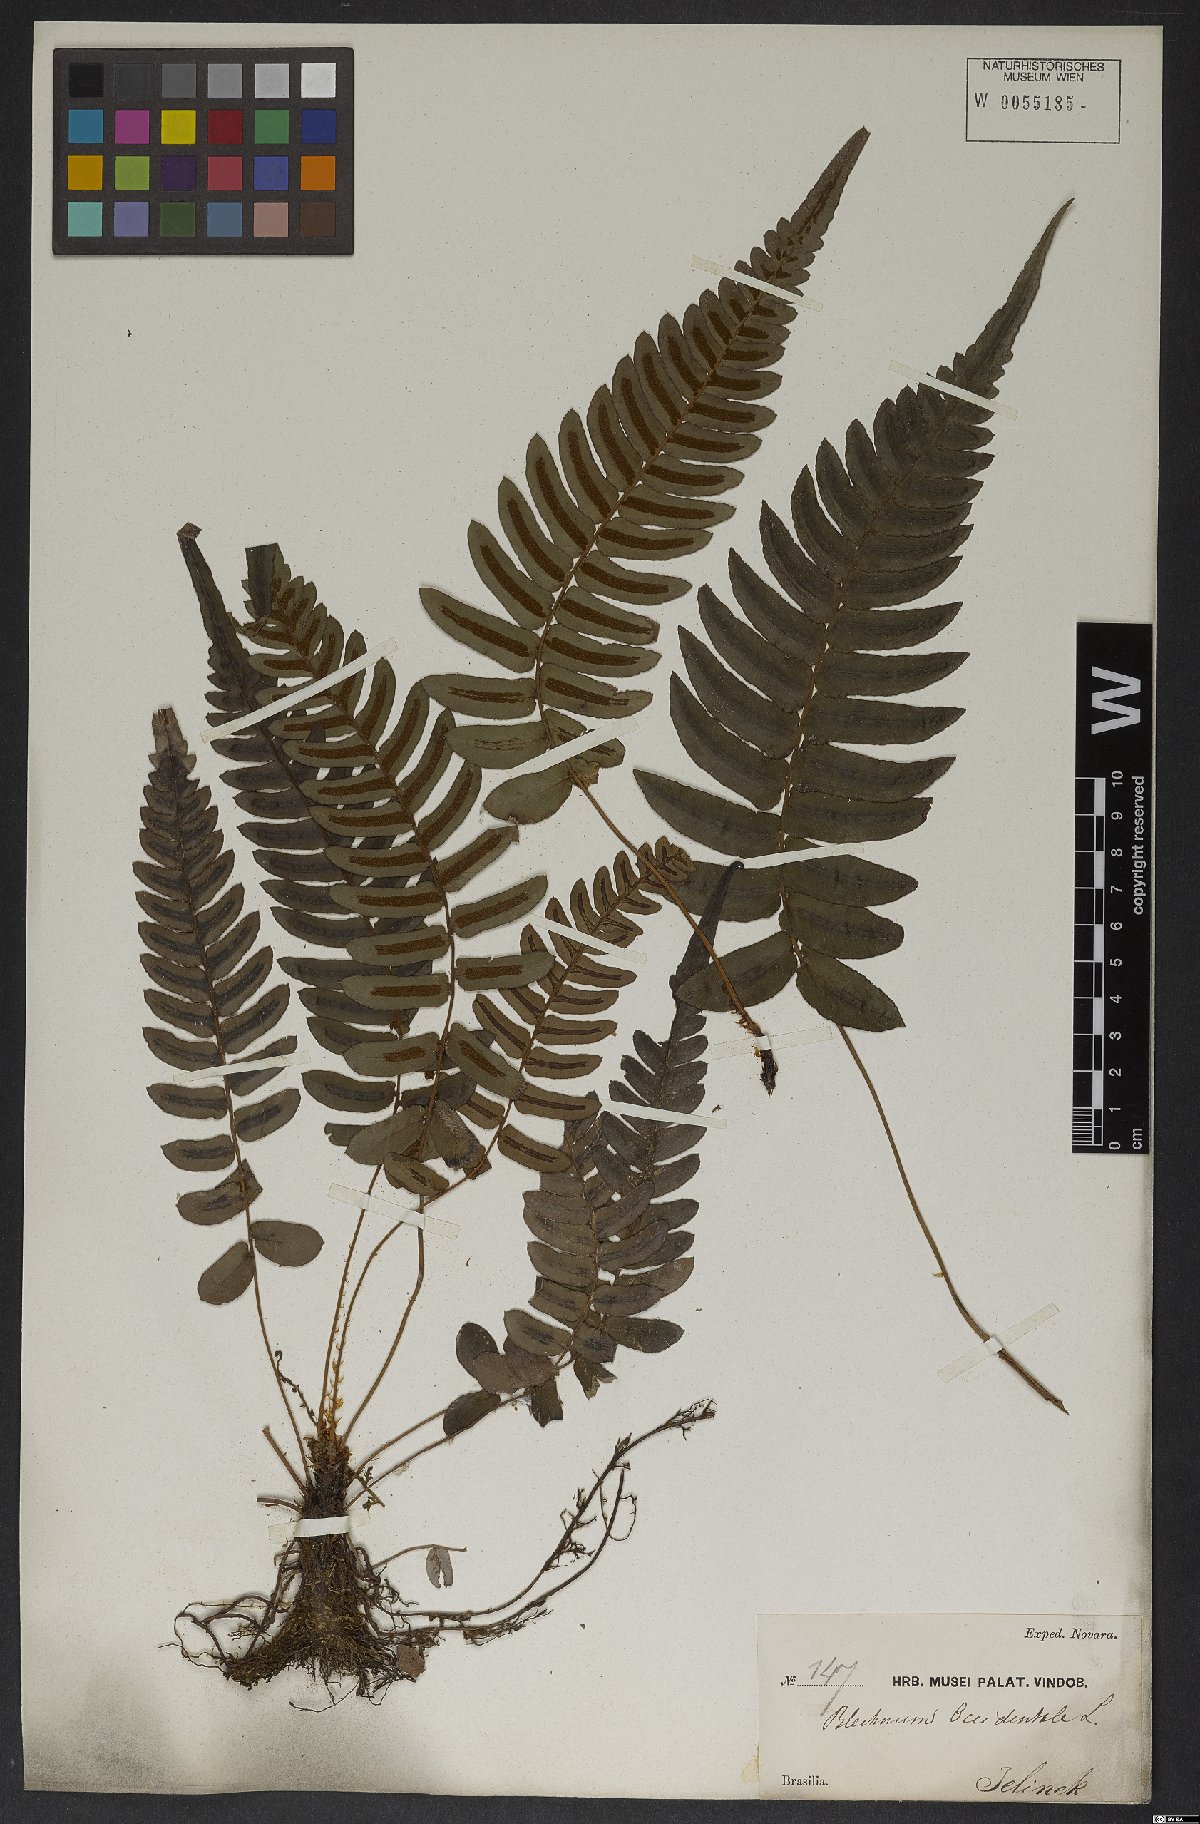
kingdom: Plantae
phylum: Tracheophyta
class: Polypodiopsida
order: Polypodiales
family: Blechnaceae
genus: Blechnum
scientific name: Blechnum occidentale
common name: Hammock fern
